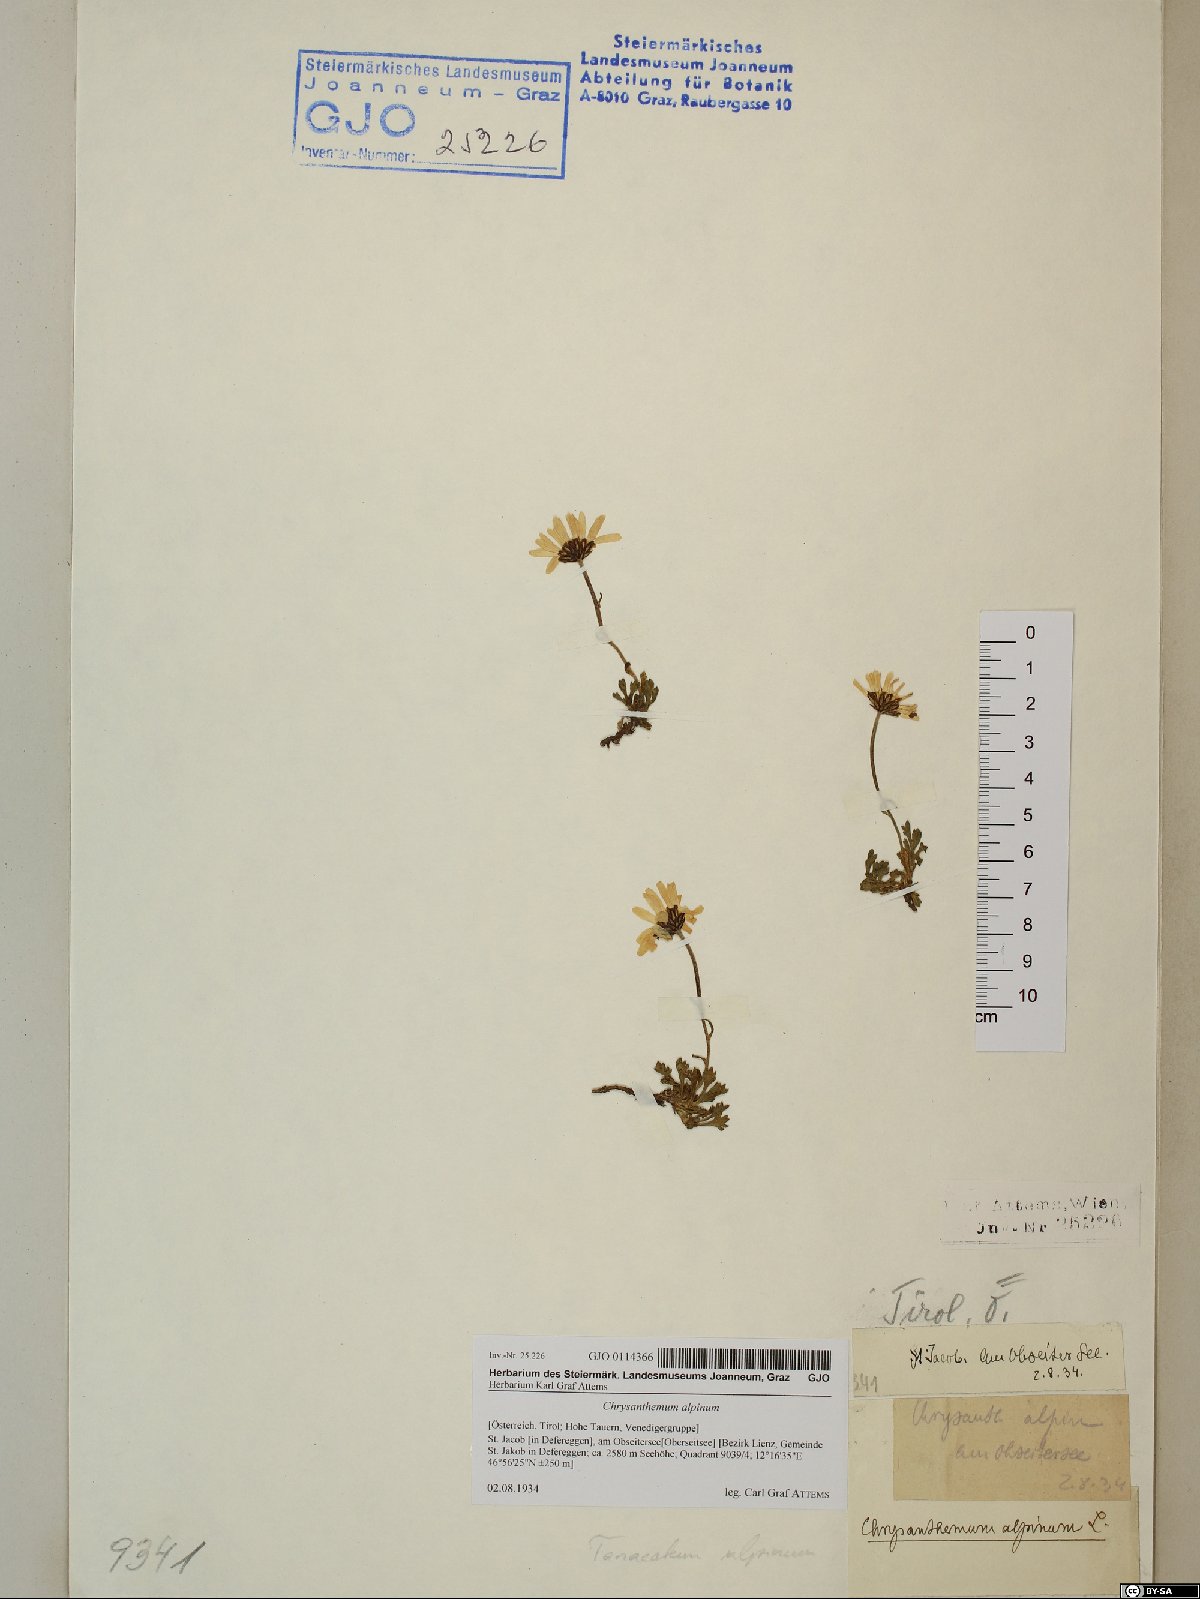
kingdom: Plantae
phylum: Tracheophyta
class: Magnoliopsida
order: Asterales
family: Asteraceae
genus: Leucanthemopsis
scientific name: Leucanthemopsis alpina
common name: Alpine moon daisy
